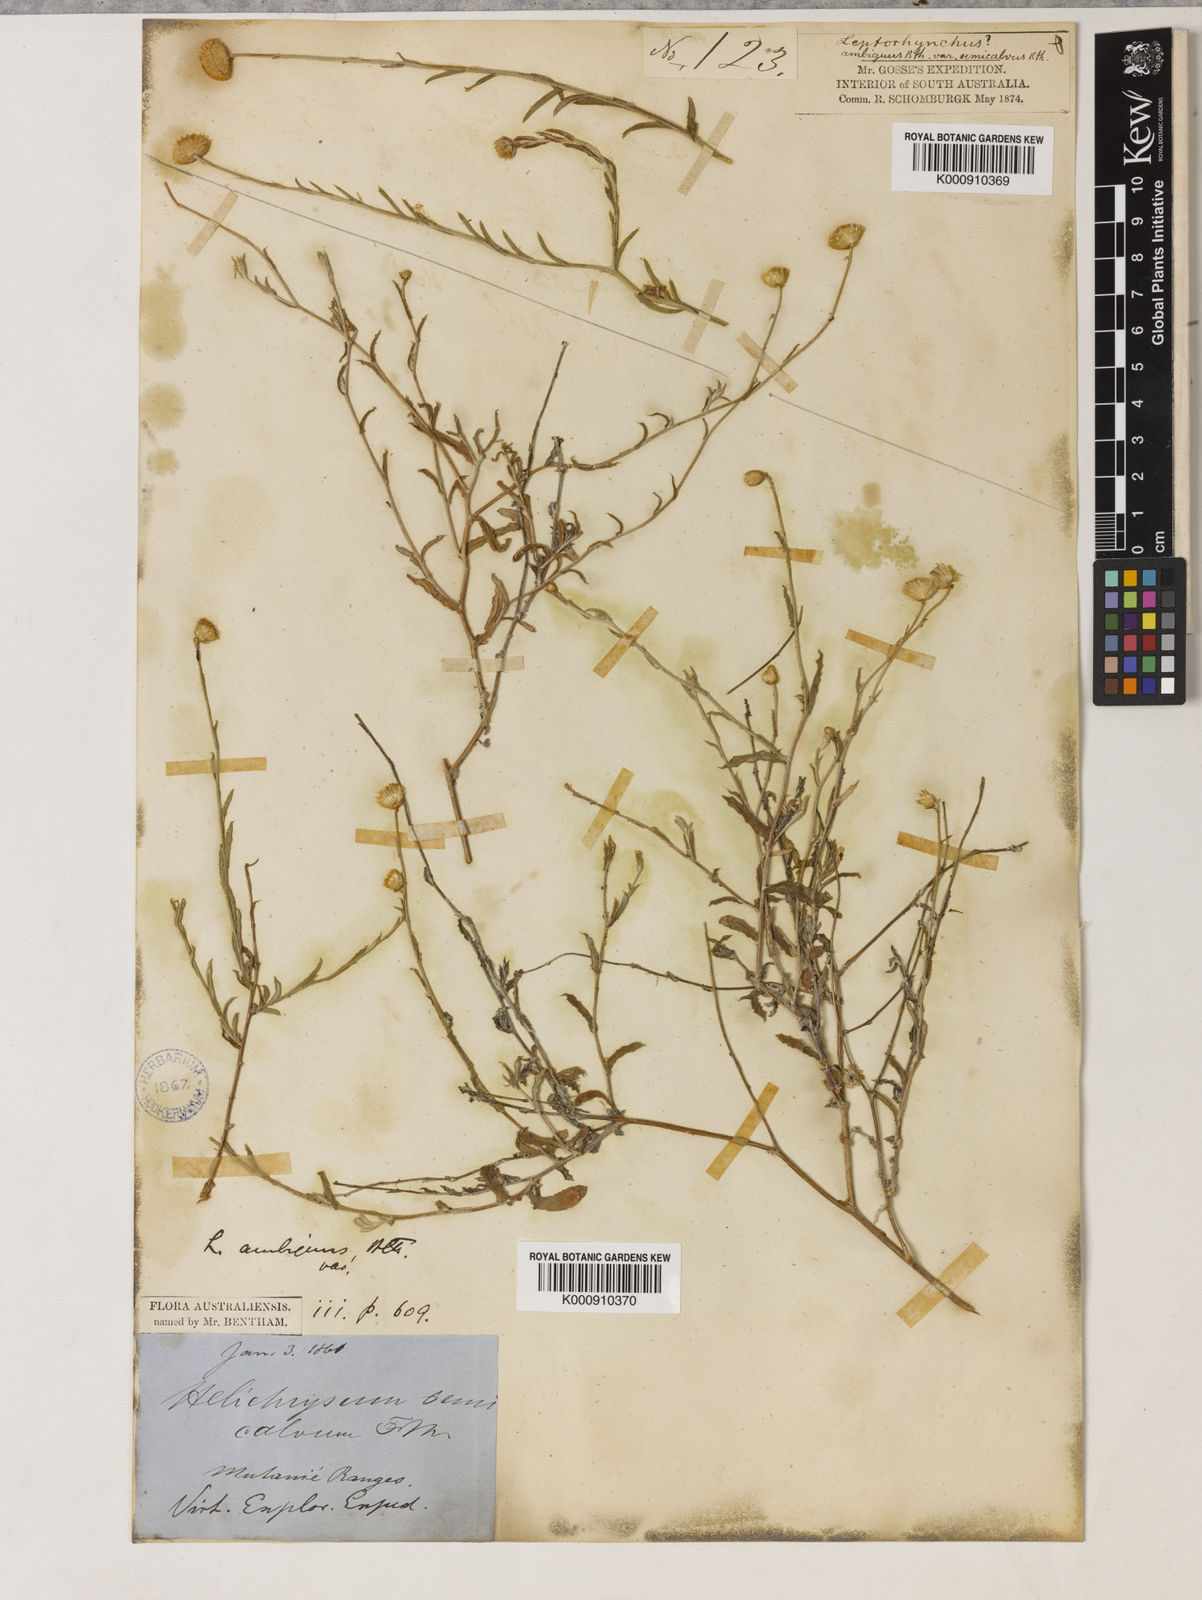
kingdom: Plantae
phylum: Tracheophyta
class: Magnoliopsida
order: Asterales
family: Asteraceae
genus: Leiocarpa
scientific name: Leiocarpa semicalva
